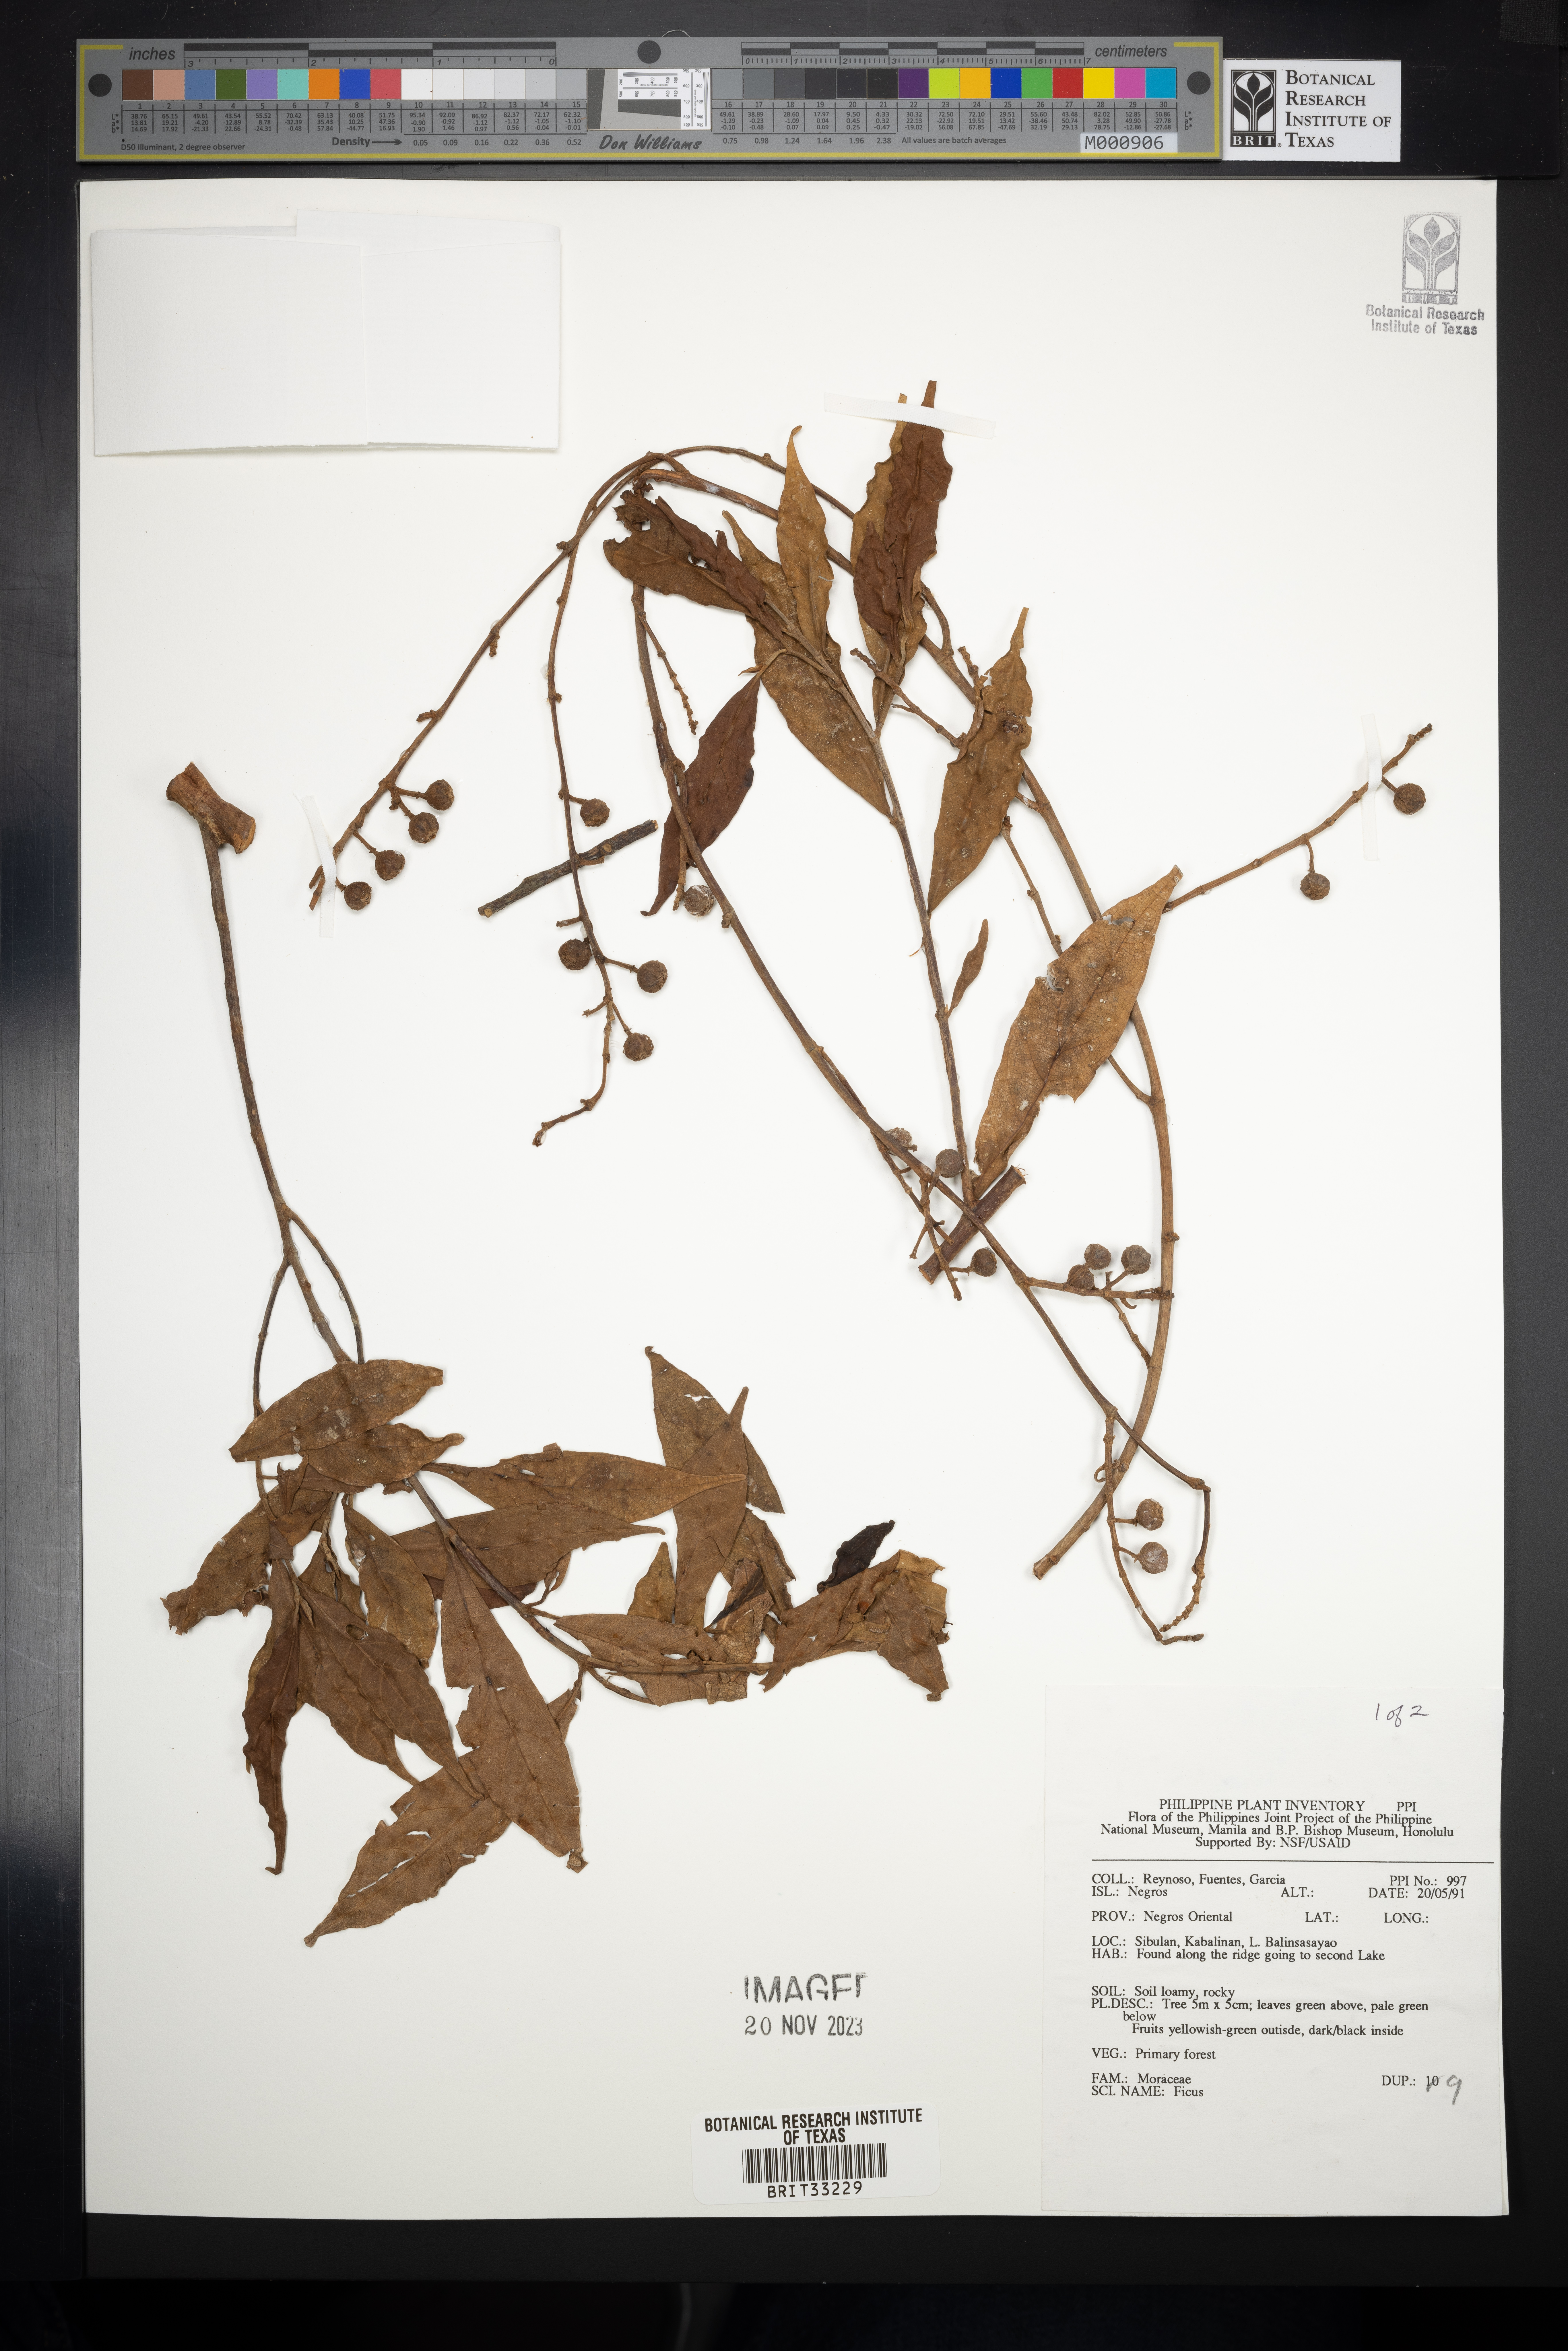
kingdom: Plantae
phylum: Tracheophyta
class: Magnoliopsida
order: Rosales
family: Moraceae
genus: Ficus
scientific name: Ficus
